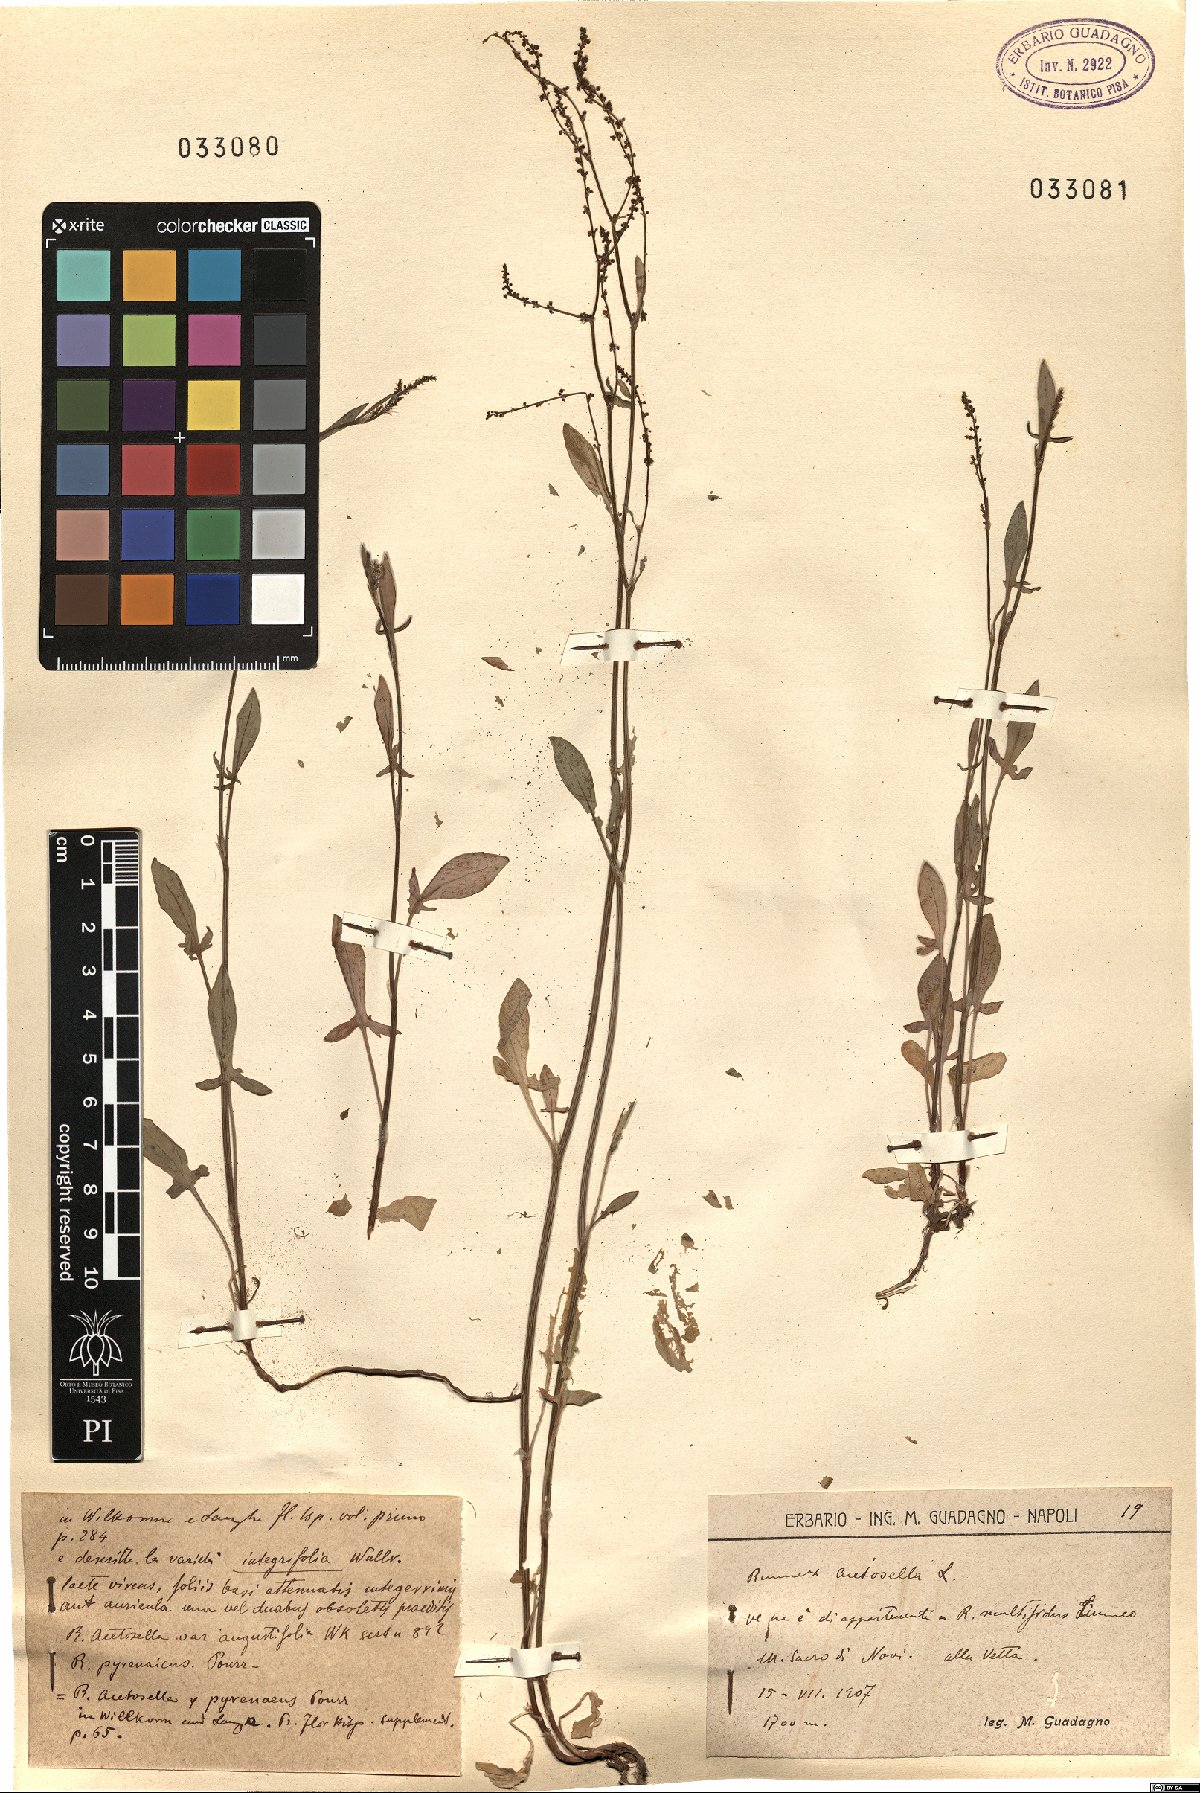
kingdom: Plantae
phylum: Tracheophyta
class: Magnoliopsida
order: Caryophyllales
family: Polygonaceae
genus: Rumex
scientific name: Rumex acetosella
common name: Common sheep sorrel
